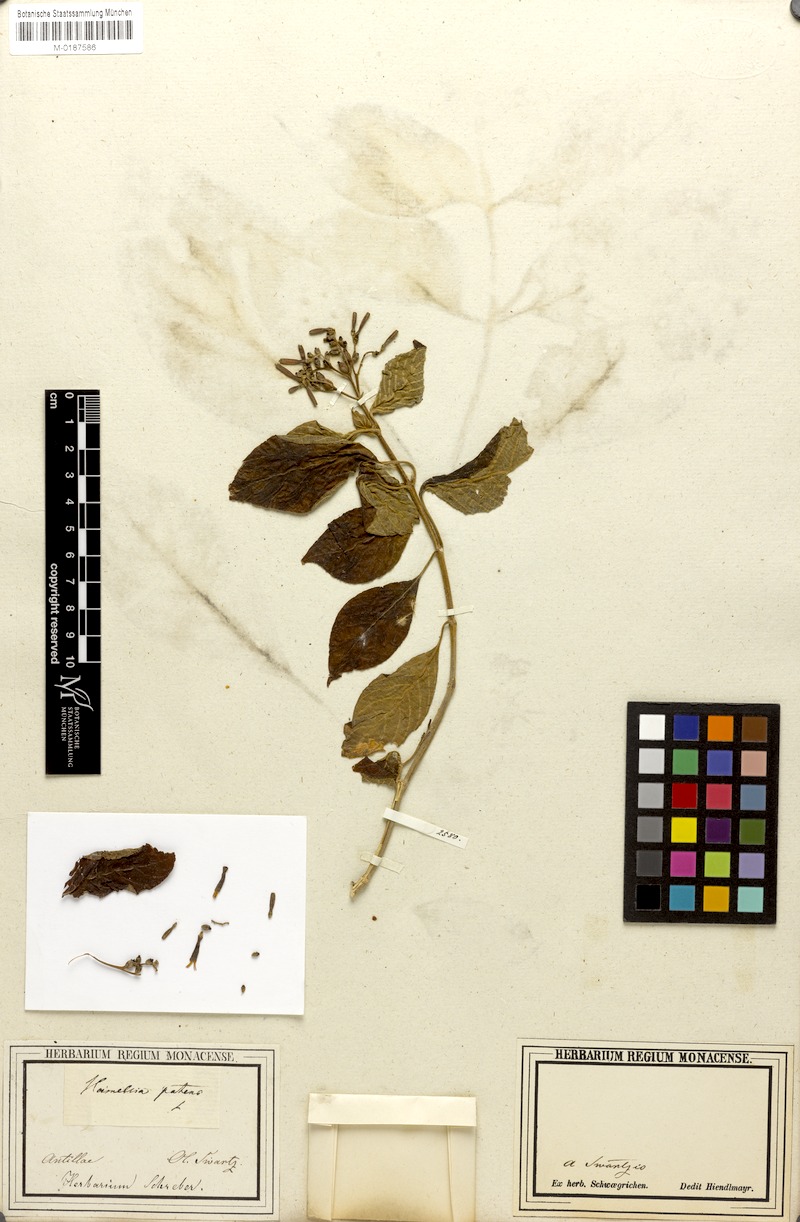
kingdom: Plantae
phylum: Tracheophyta
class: Magnoliopsida
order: Gentianales
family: Rubiaceae
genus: Hamelia
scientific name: Hamelia patens
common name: Redhead
